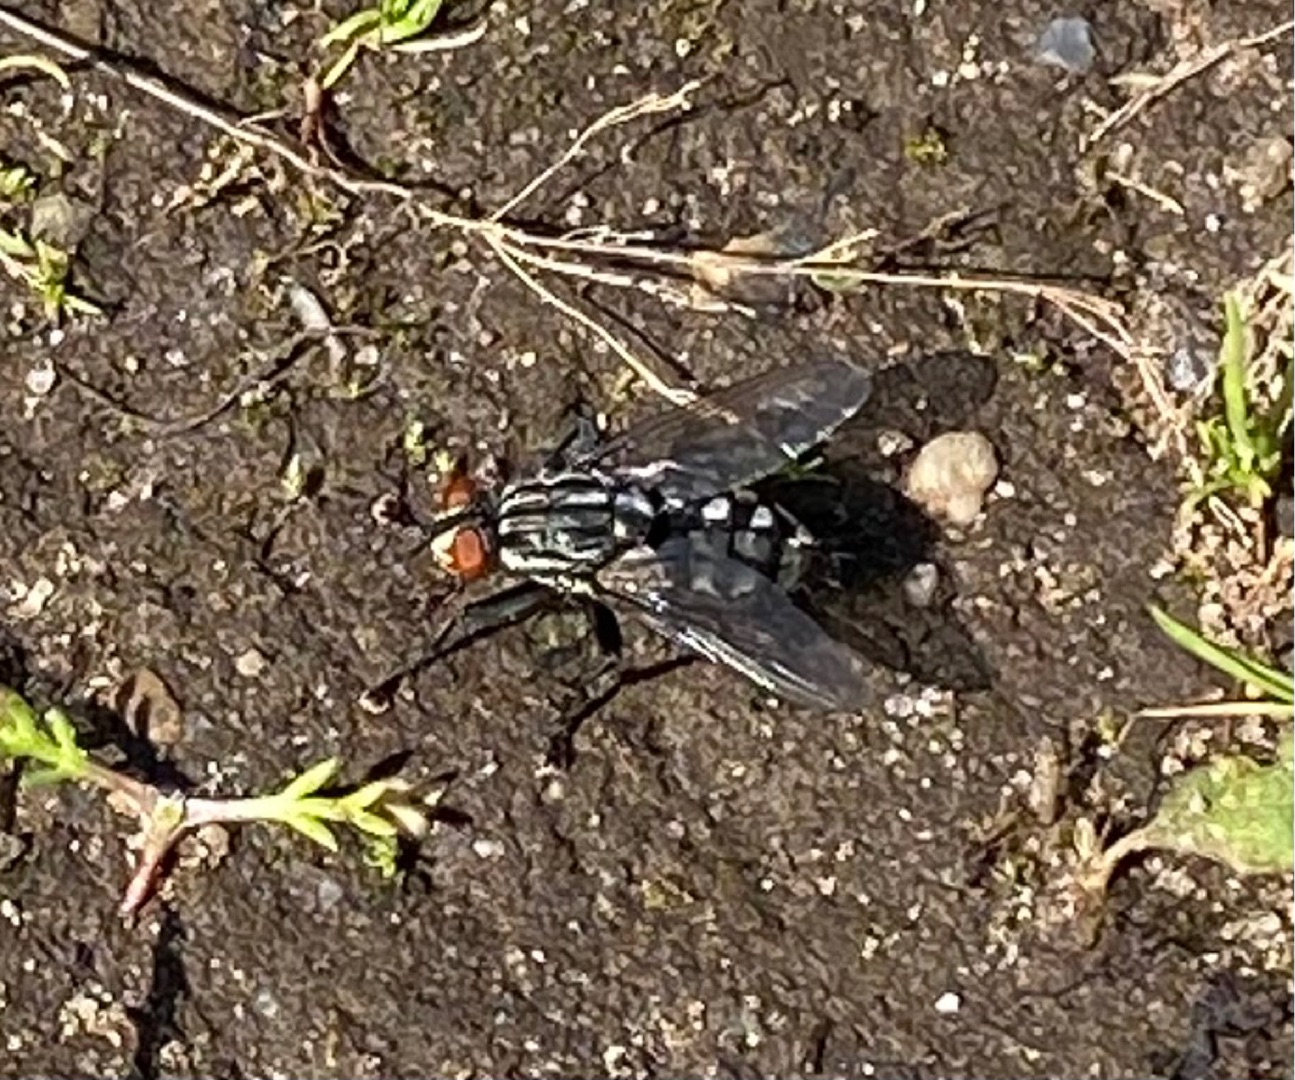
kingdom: Animalia
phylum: Arthropoda
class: Insecta
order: Diptera
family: Sarcophagidae
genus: Sarcophaga
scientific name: Sarcophaga
